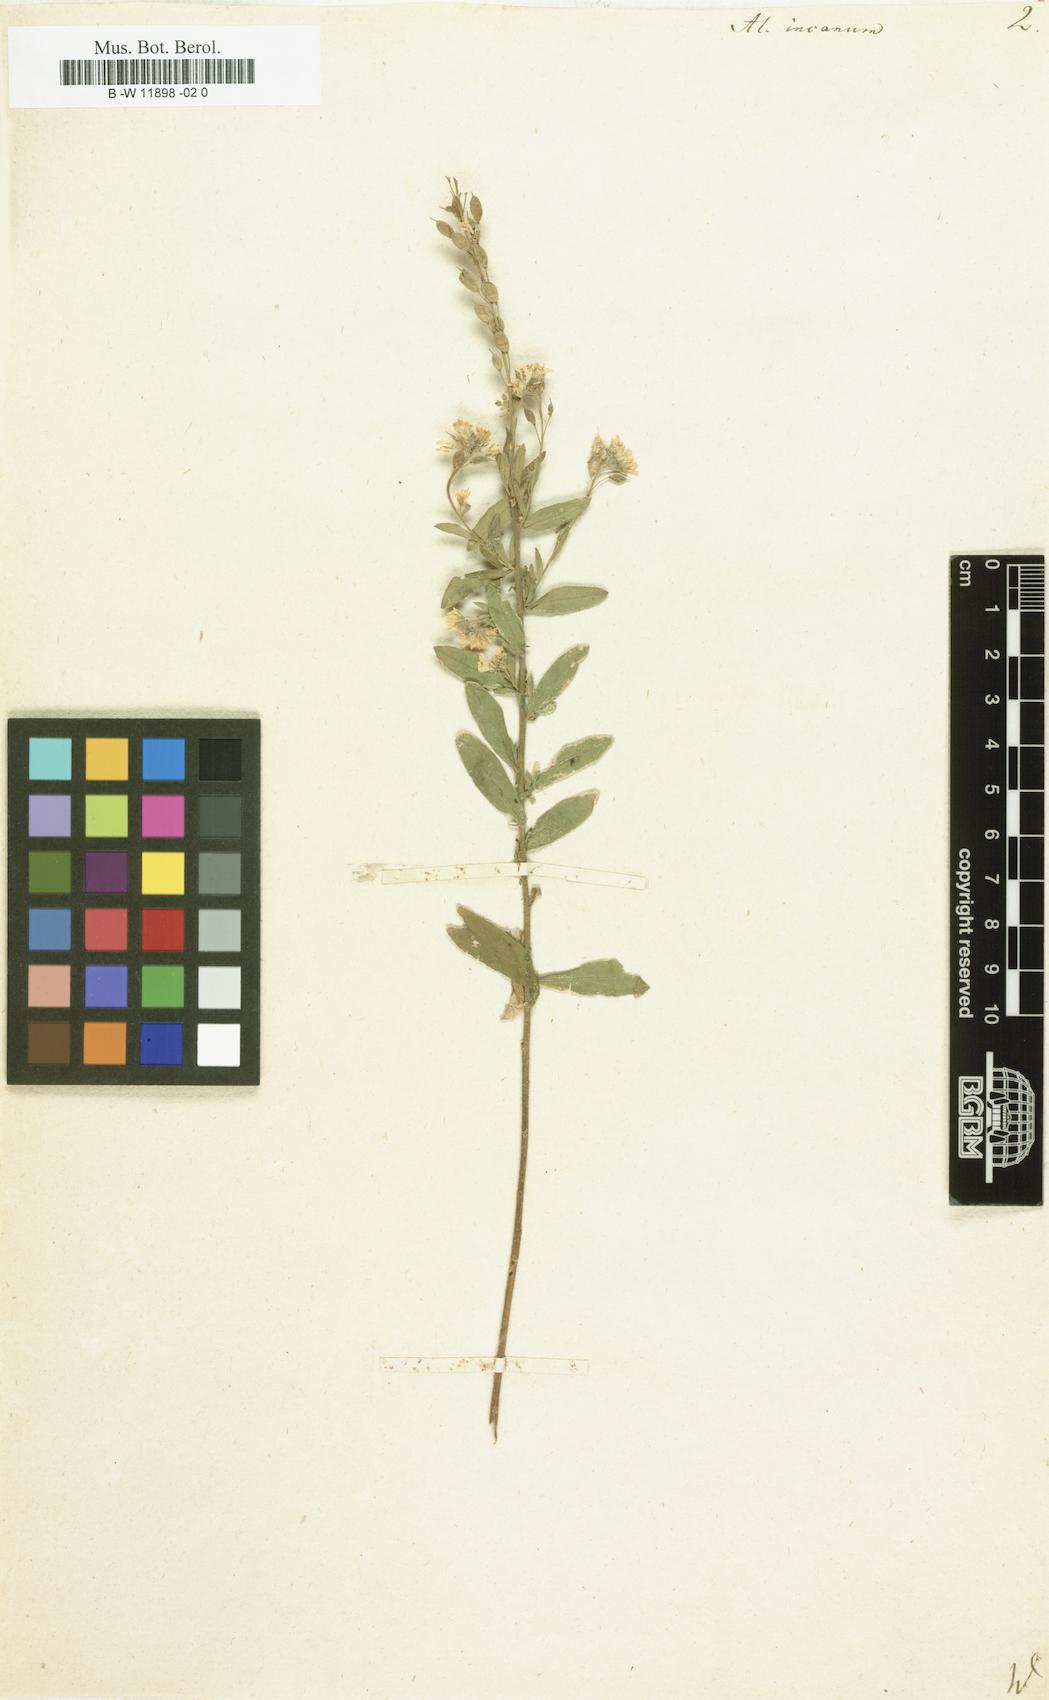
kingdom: Plantae
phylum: Tracheophyta
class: Magnoliopsida
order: Brassicales
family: Brassicaceae
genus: Berteroa
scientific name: Berteroa incana
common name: Hoary alison
